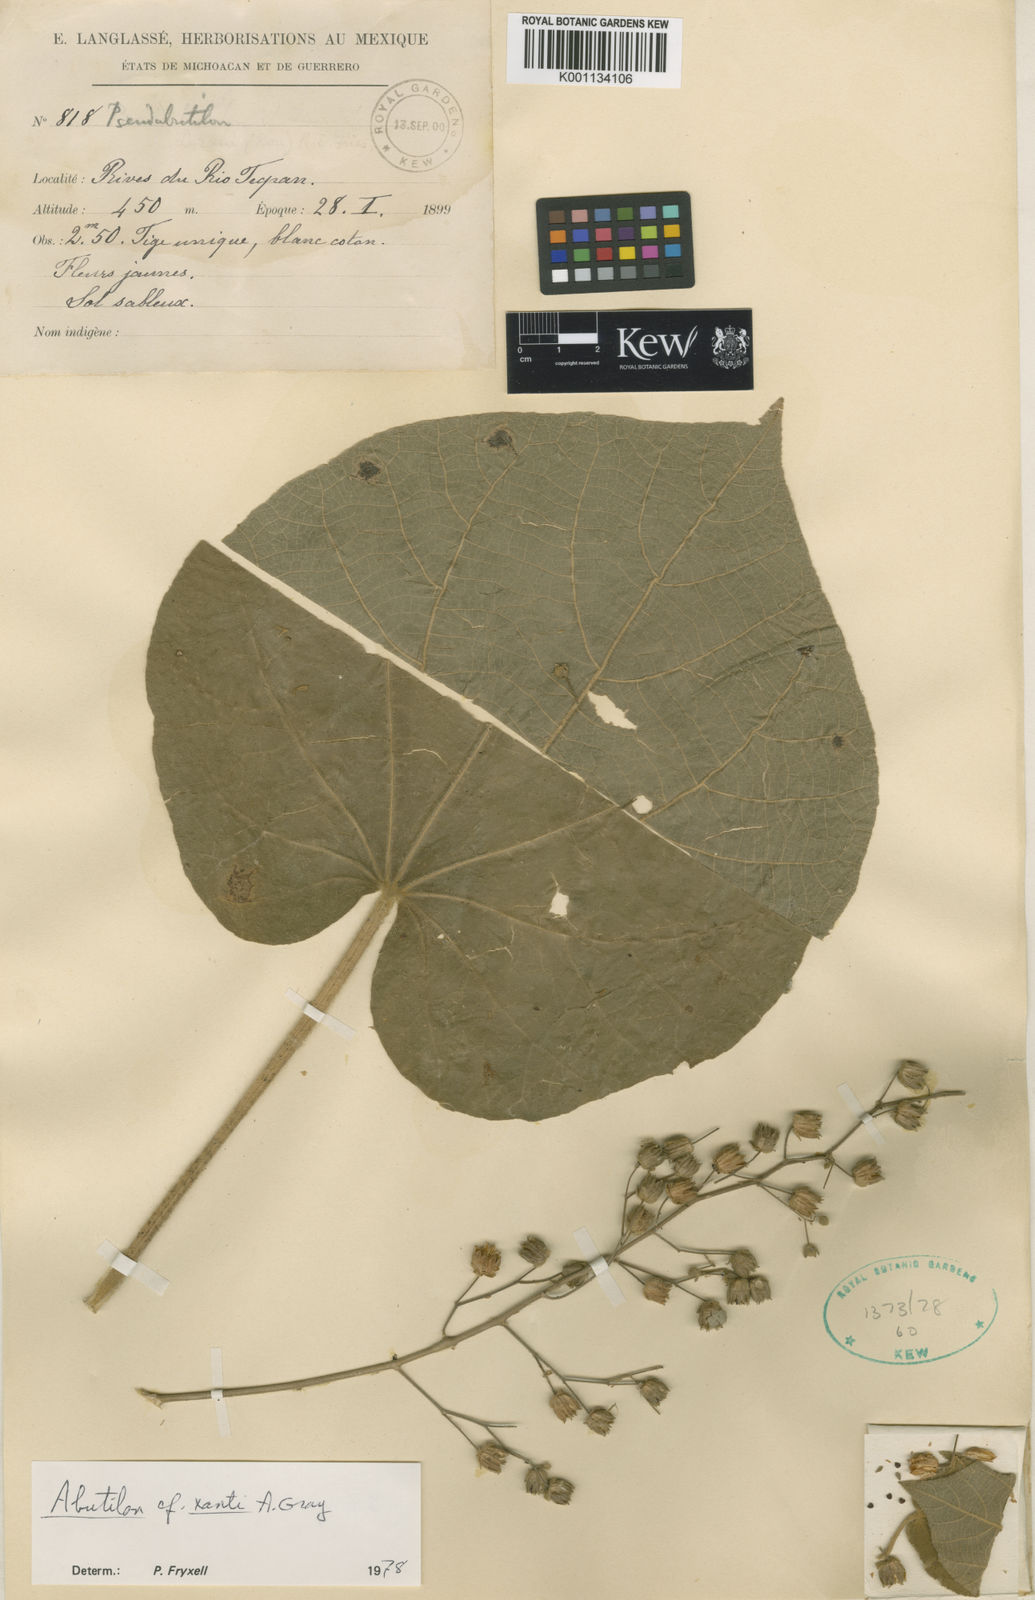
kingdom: Plantae
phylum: Tracheophyta
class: Magnoliopsida
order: Malvales
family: Malvaceae
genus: Abutilon
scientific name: Abutilon xanti
